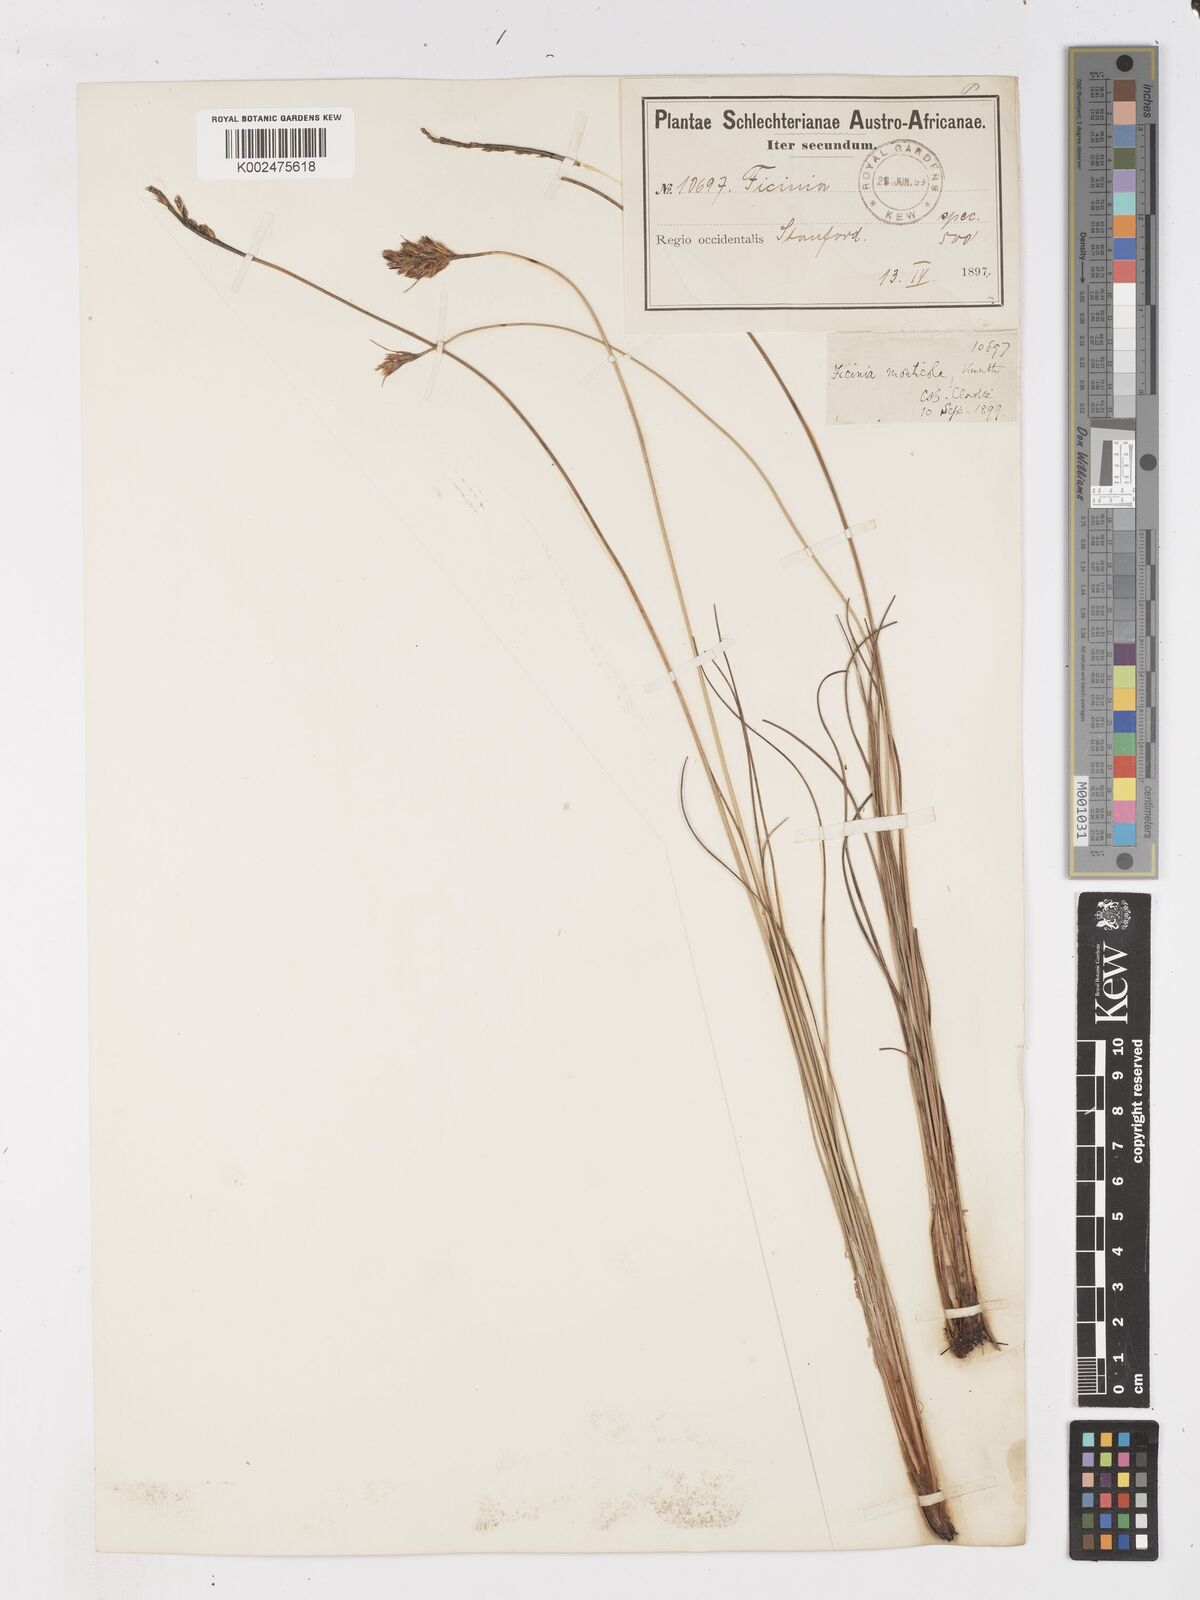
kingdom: Plantae
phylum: Tracheophyta
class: Liliopsida
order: Poales
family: Cyperaceae
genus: Ficinia
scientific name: Ficinia monticola
